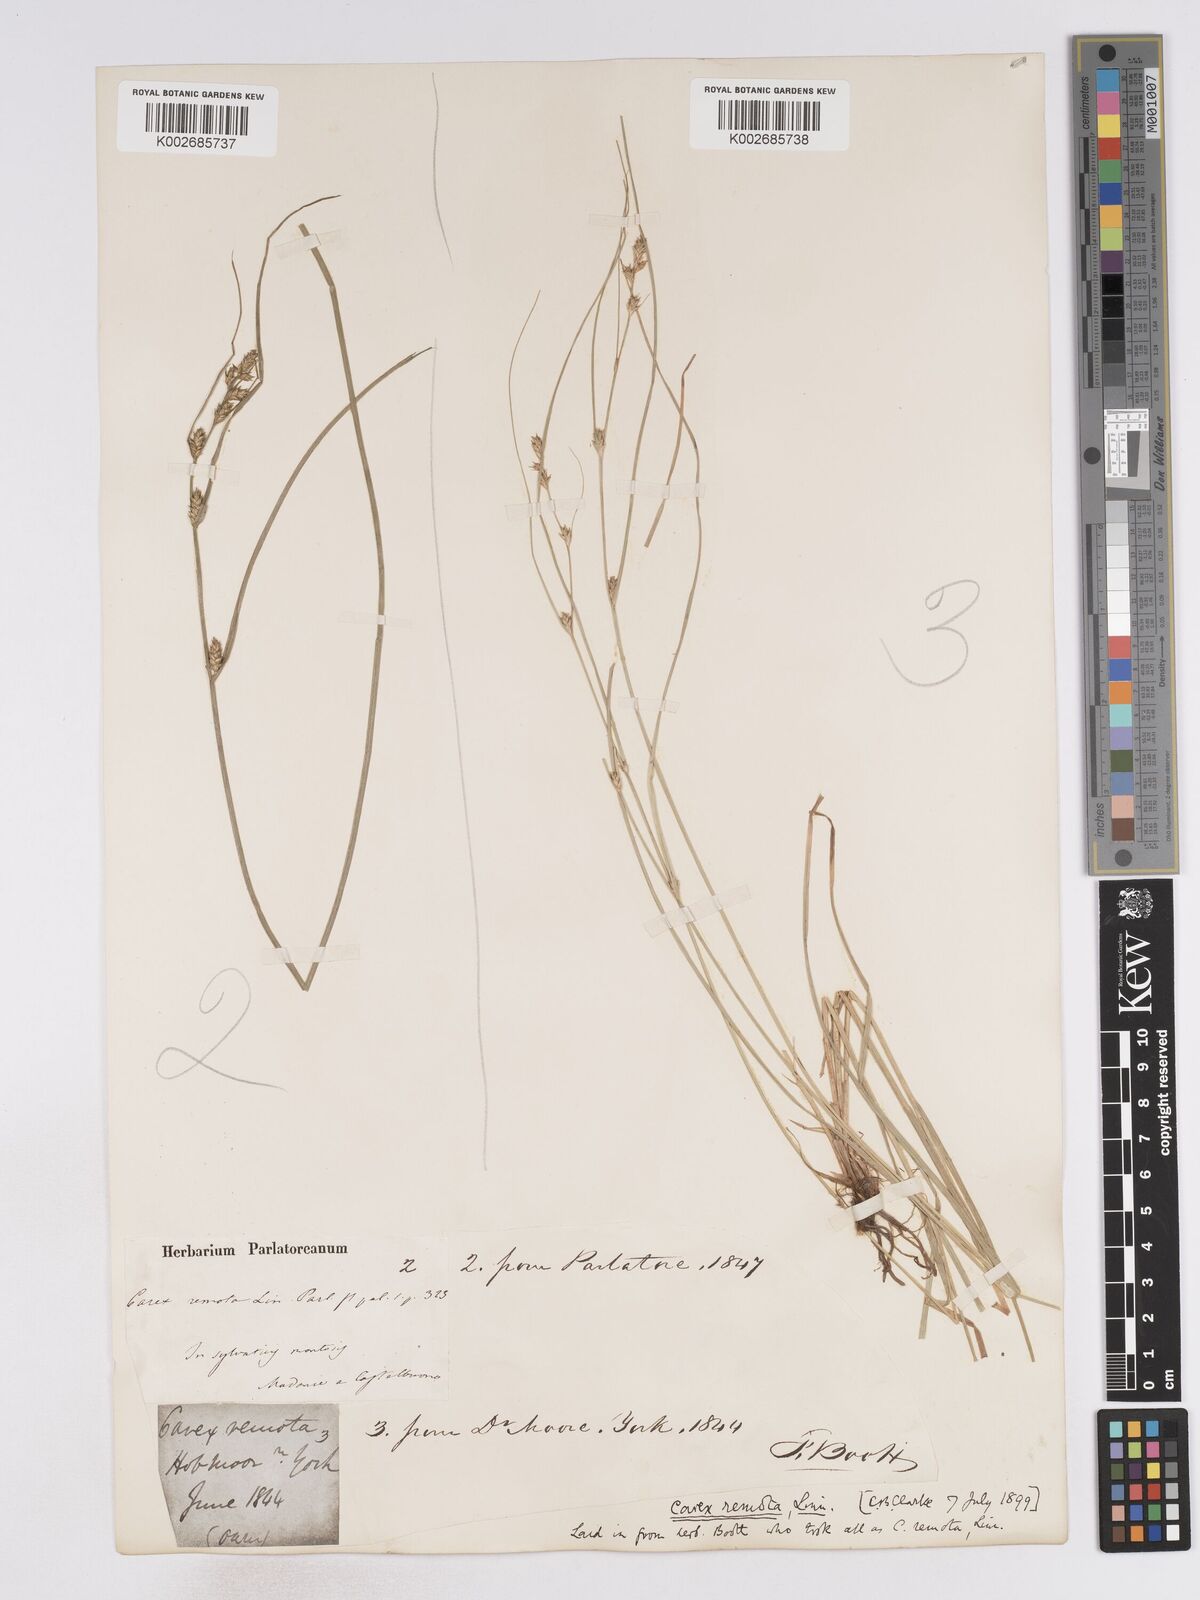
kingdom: Plantae
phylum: Tracheophyta
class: Liliopsida
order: Poales
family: Cyperaceae
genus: Carex
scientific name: Carex remota
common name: Remote sedge
